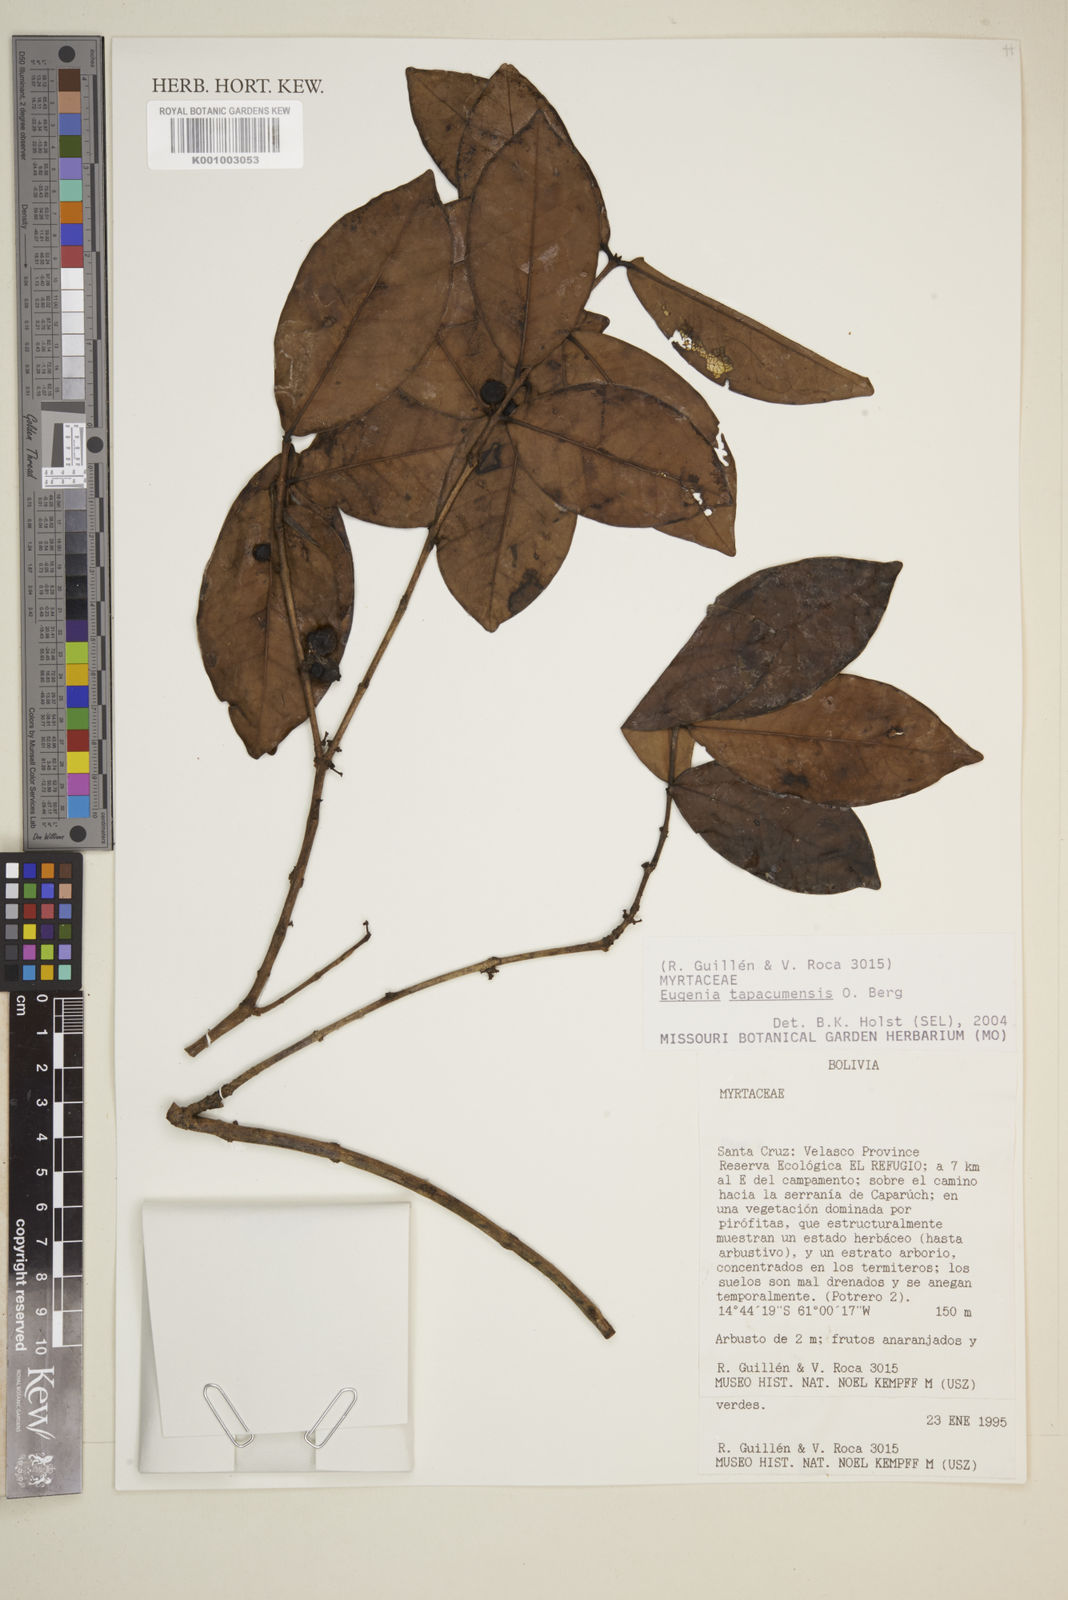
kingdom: Plantae
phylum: Tracheophyta
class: Magnoliopsida
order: Myrtales
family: Myrtaceae
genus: Eugenia
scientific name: Eugenia tapacumensis
